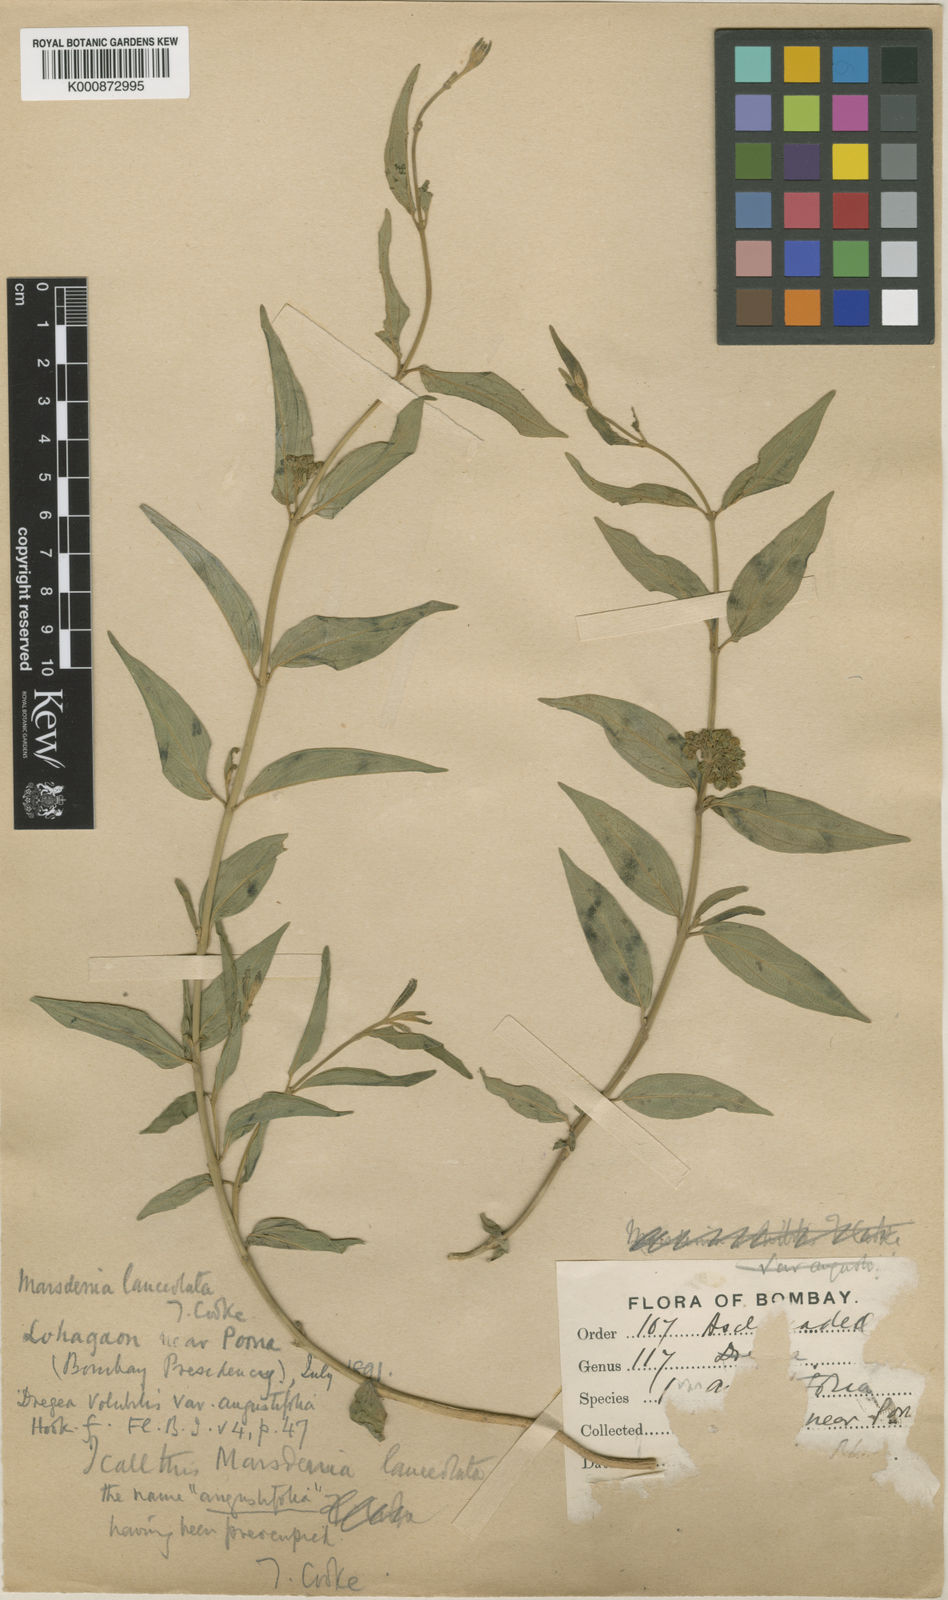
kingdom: Plantae
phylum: Tracheophyta
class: Magnoliopsida
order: Gentianales
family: Apocynaceae
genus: Stephanotis
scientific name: Stephanotis volubilis
